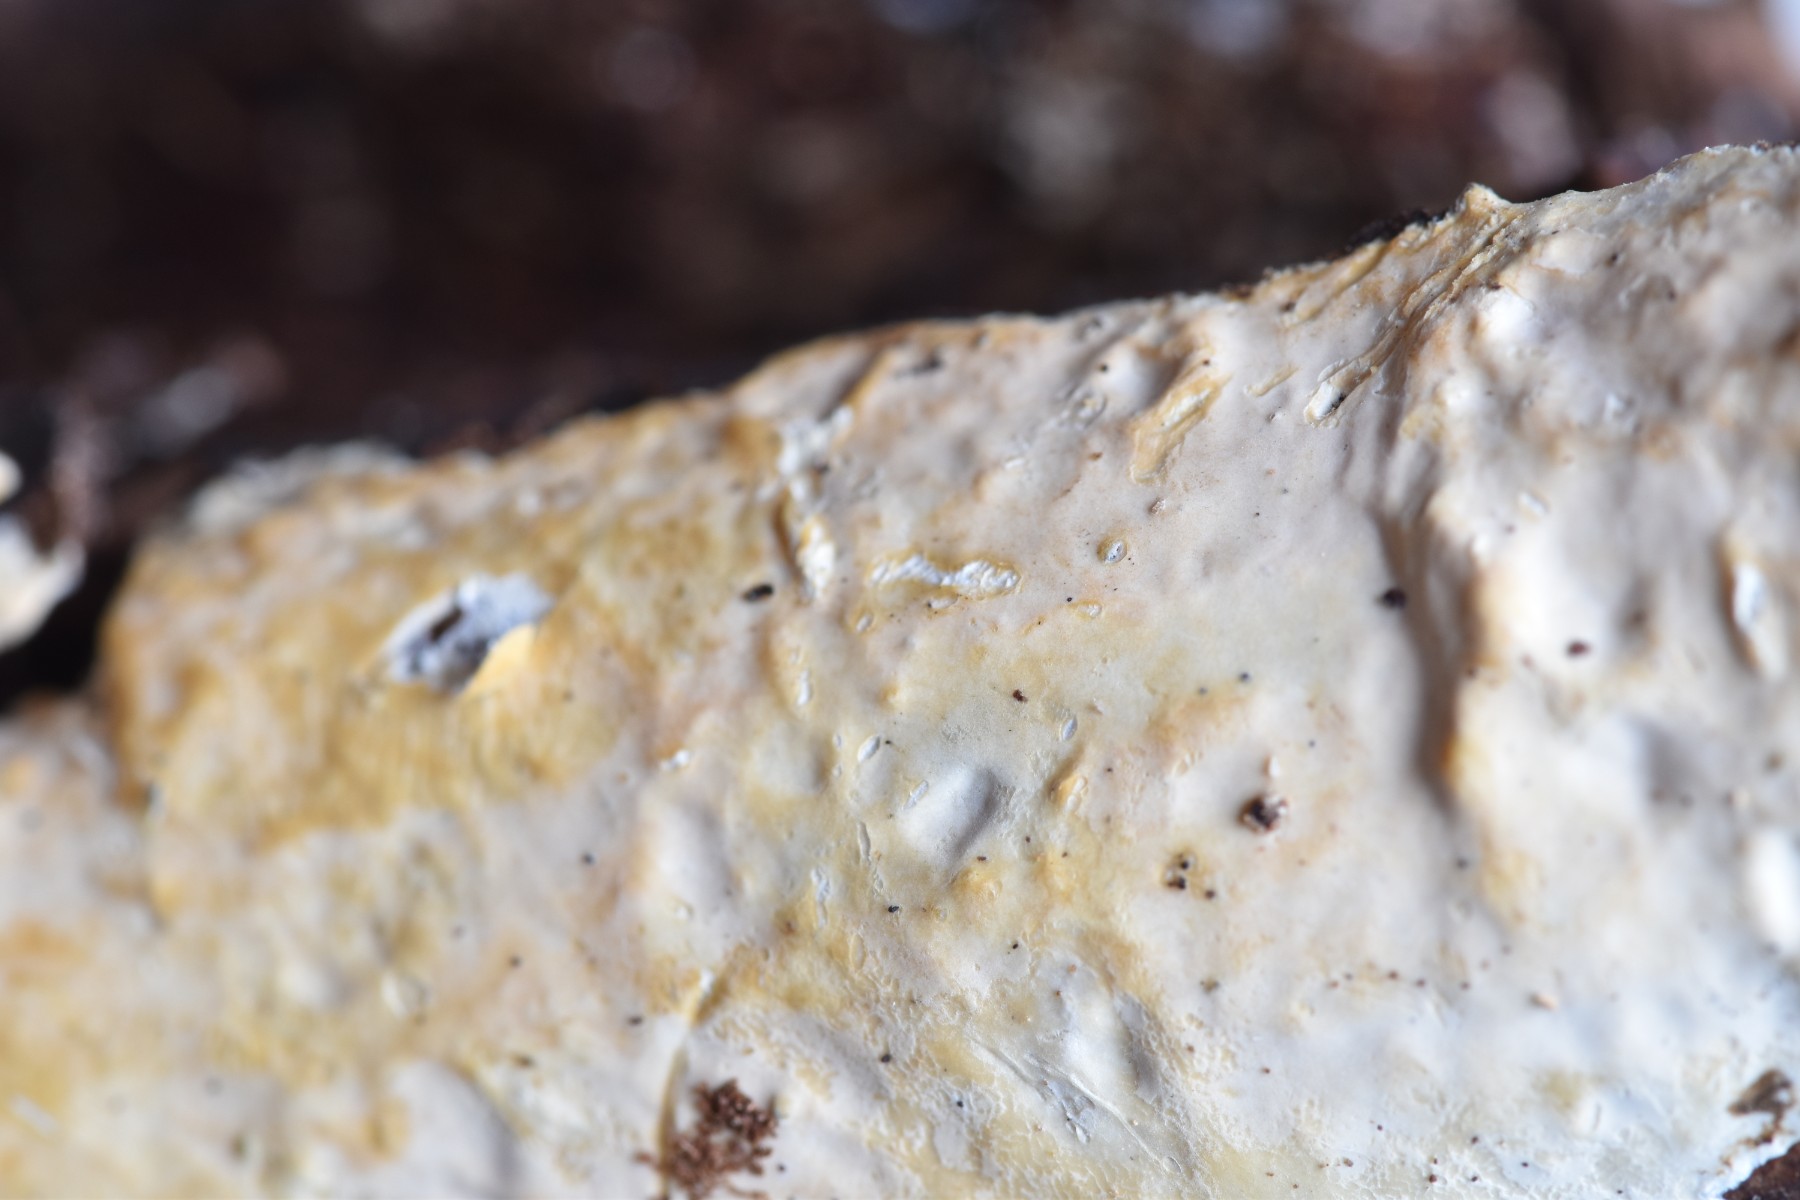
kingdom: Fungi
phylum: Basidiomycota
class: Agaricomycetes
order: Agaricales
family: Physalacriaceae
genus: Cylindrobasidium
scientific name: Cylindrobasidium evolvens
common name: sprækkehinde
